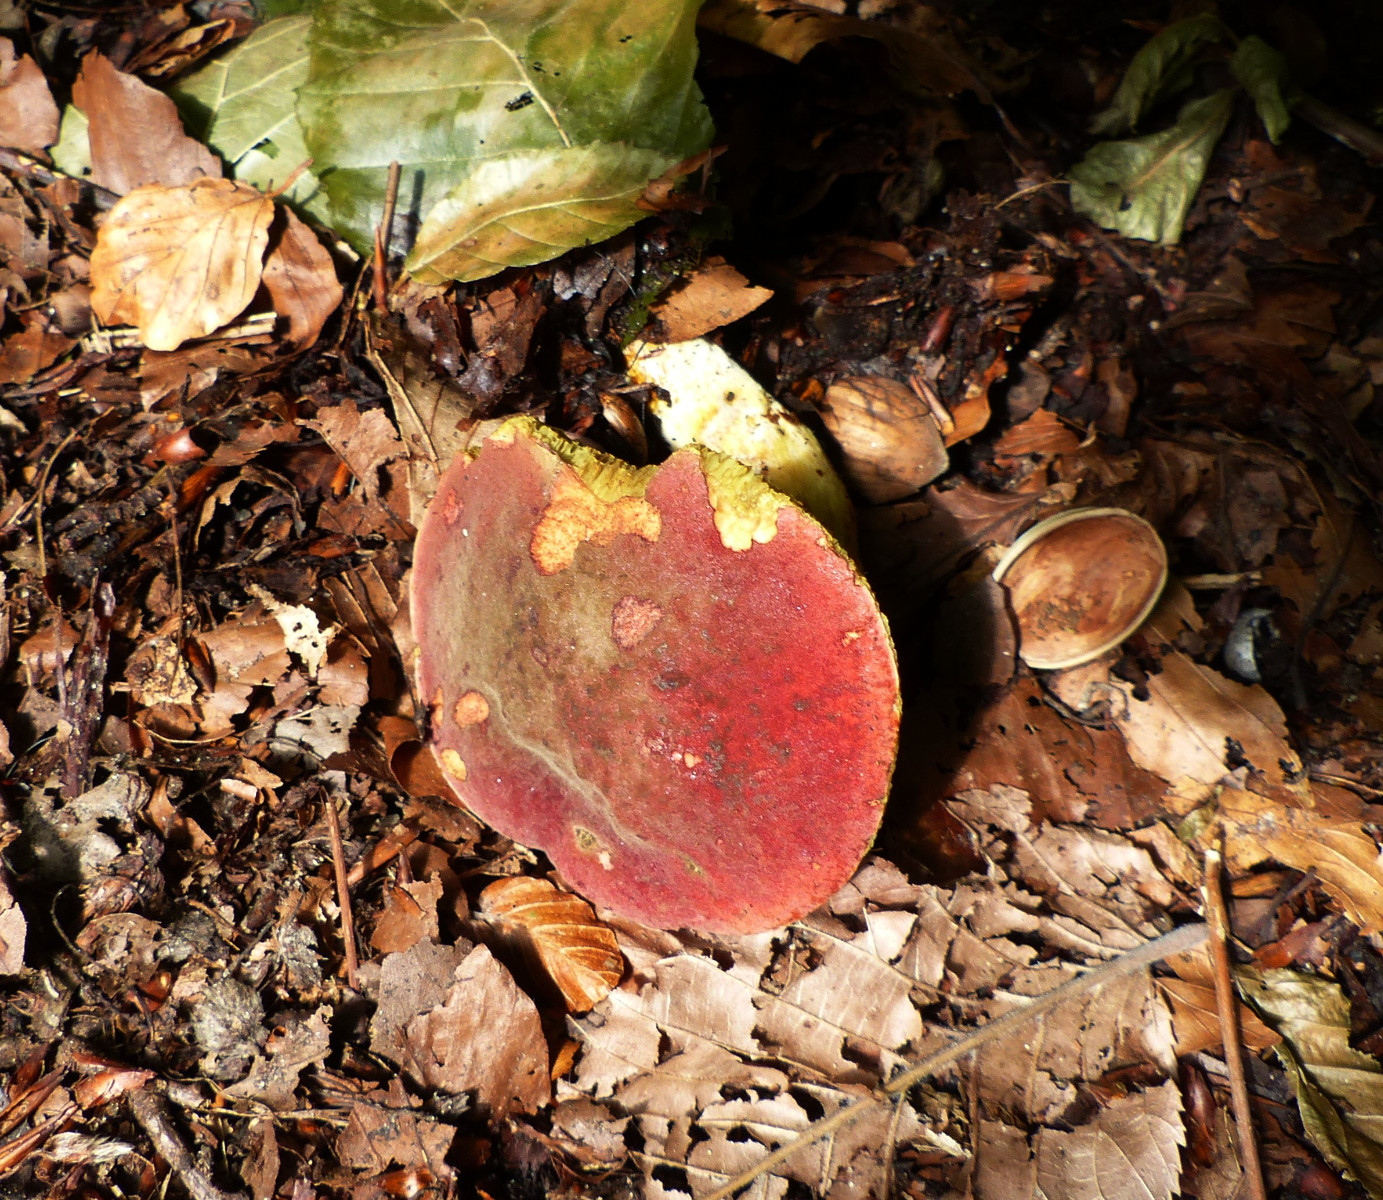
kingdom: Fungi
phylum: Basidiomycota
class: Agaricomycetes
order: Boletales
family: Boletaceae
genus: Hortiboletus
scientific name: Hortiboletus rubellus
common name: blodrød rørhat
